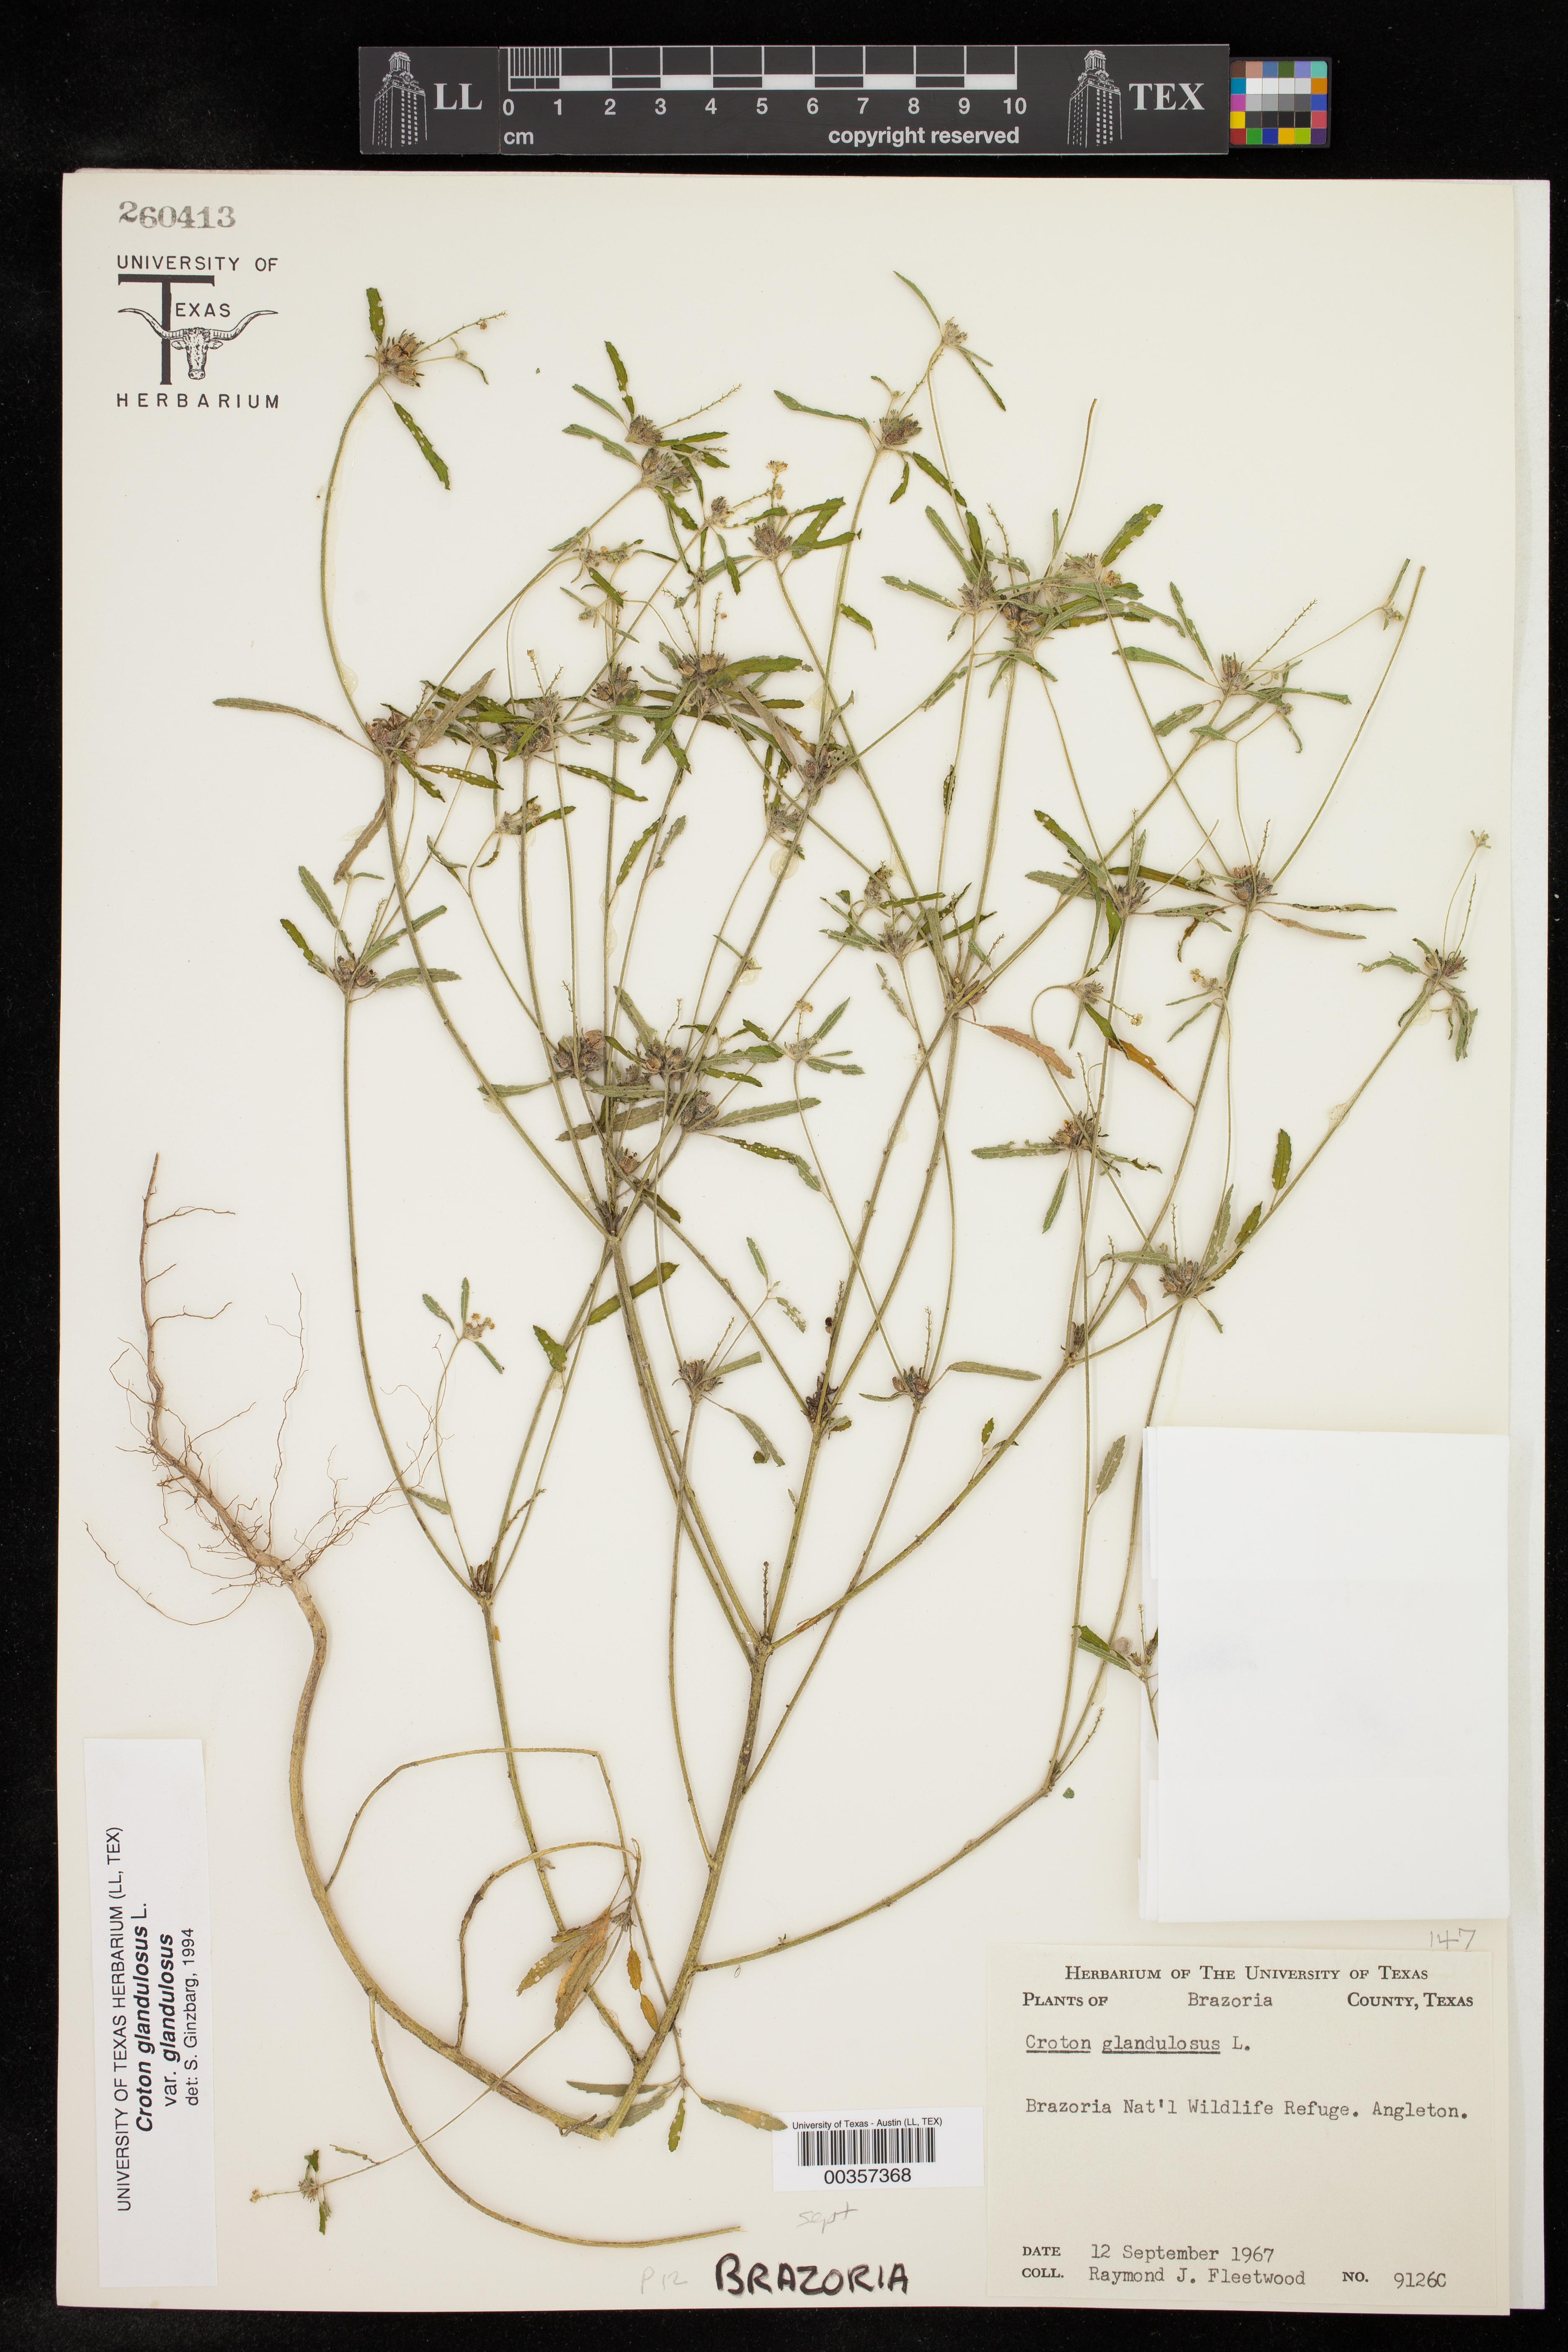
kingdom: Plantae
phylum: Tracheophyta
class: Magnoliopsida
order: Malpighiales
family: Euphorbiaceae
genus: Croton
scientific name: Croton glandulosus
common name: Tropic croton
